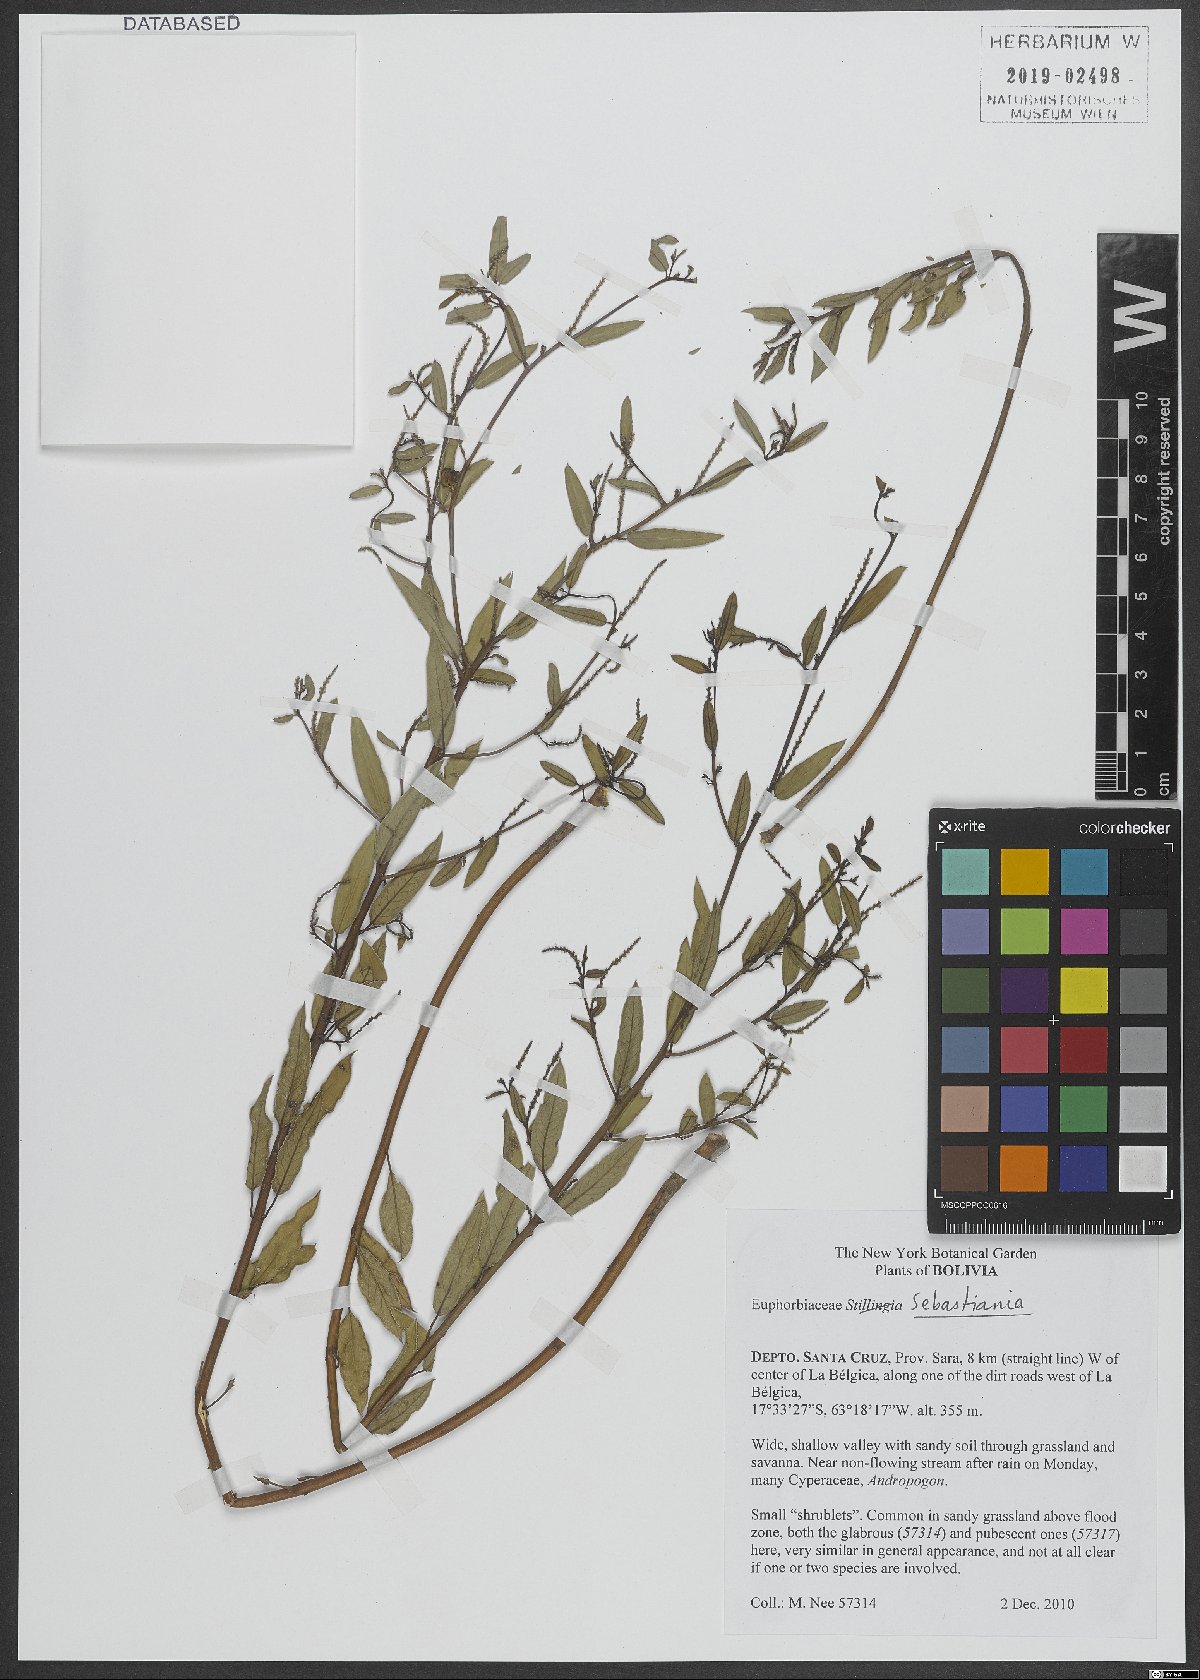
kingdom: Plantae
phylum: Tracheophyta
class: Magnoliopsida
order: Malpighiales
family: Euphorbiaceae
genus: Sebastiania
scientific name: Sebastiania
